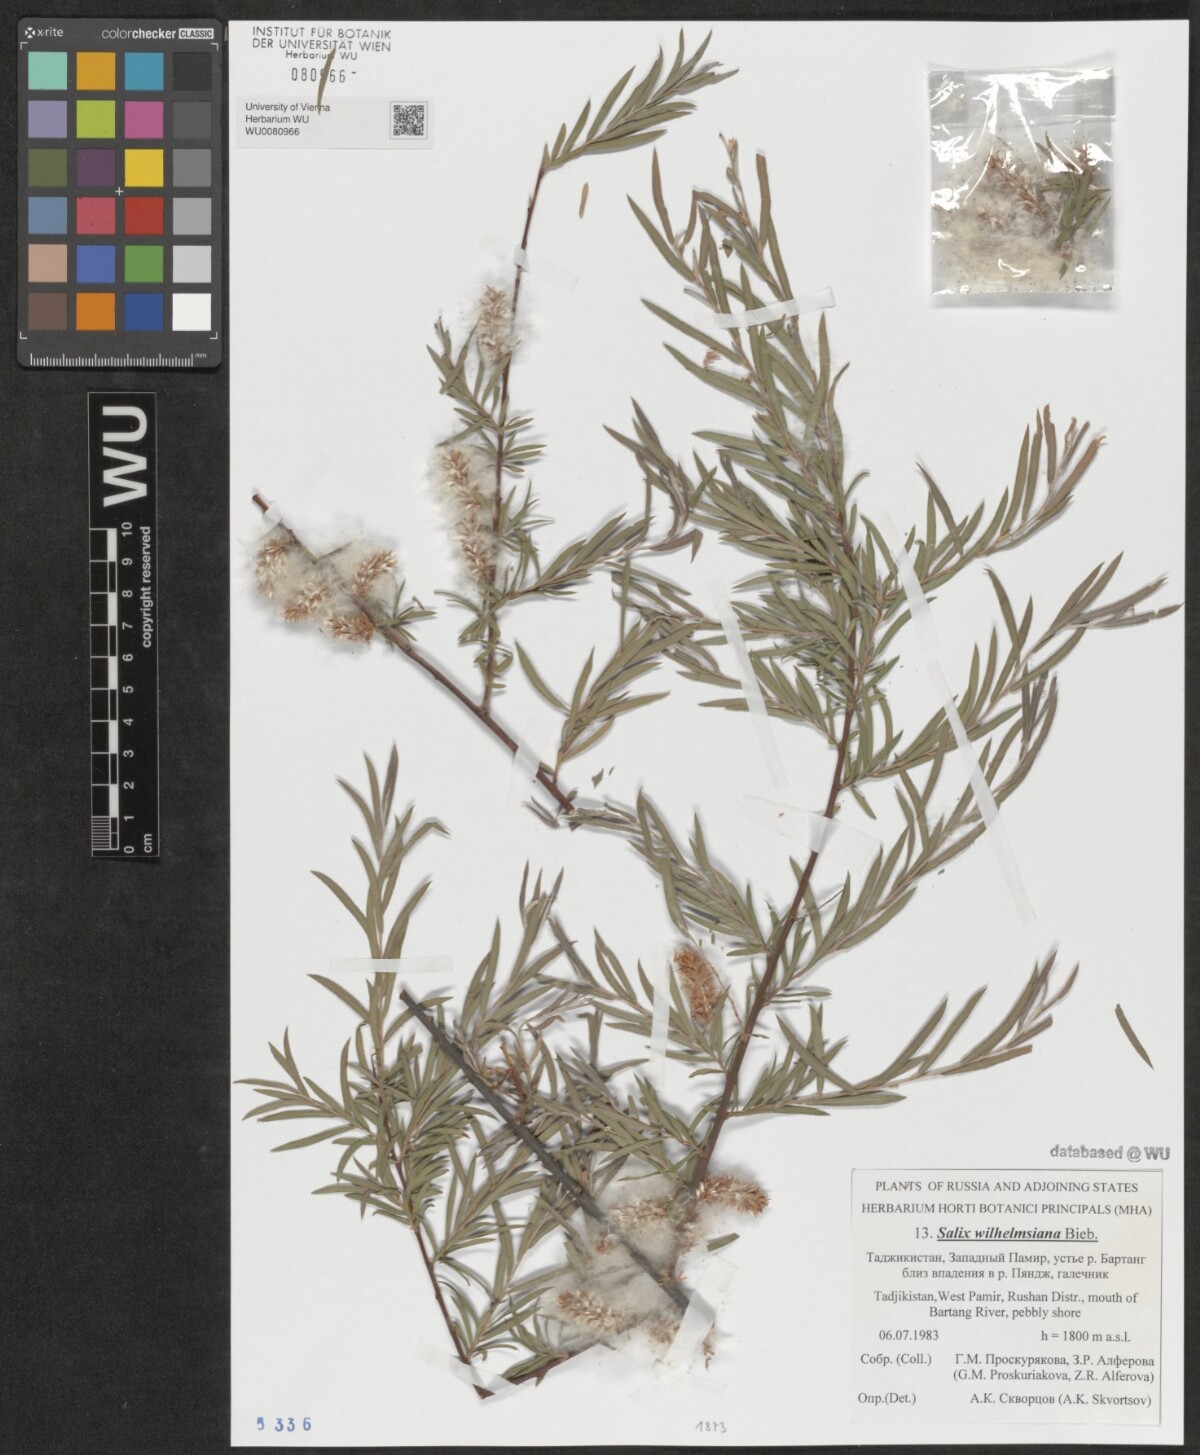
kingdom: Plantae
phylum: Tracheophyta
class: Magnoliopsida
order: Malpighiales
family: Salicaceae
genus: Salix
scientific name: Salix wilhelmsiana
